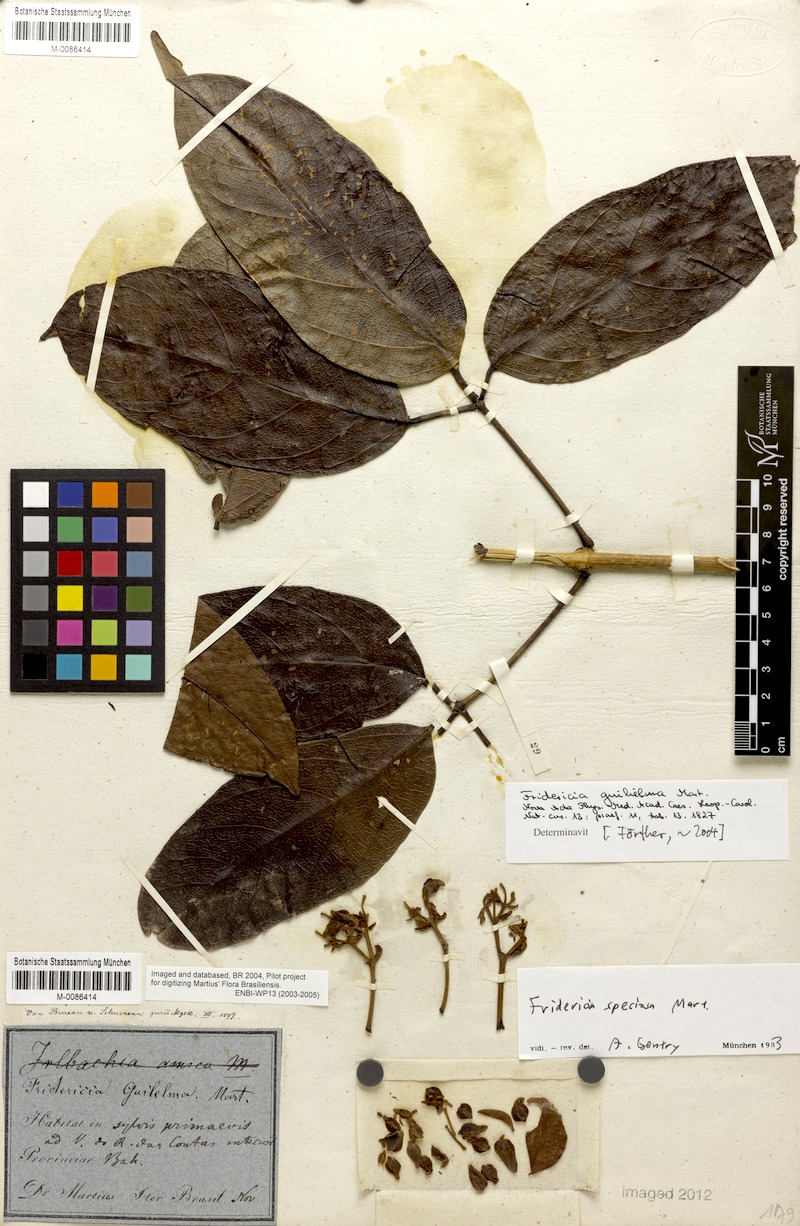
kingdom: Plantae
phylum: Tracheophyta
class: Magnoliopsida
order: Lamiales
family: Bignoniaceae
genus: Fridericia
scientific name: Fridericia speciosa
